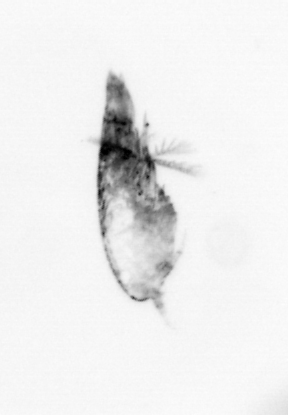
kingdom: Animalia
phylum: Arthropoda
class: Maxillopoda
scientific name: Maxillopoda
